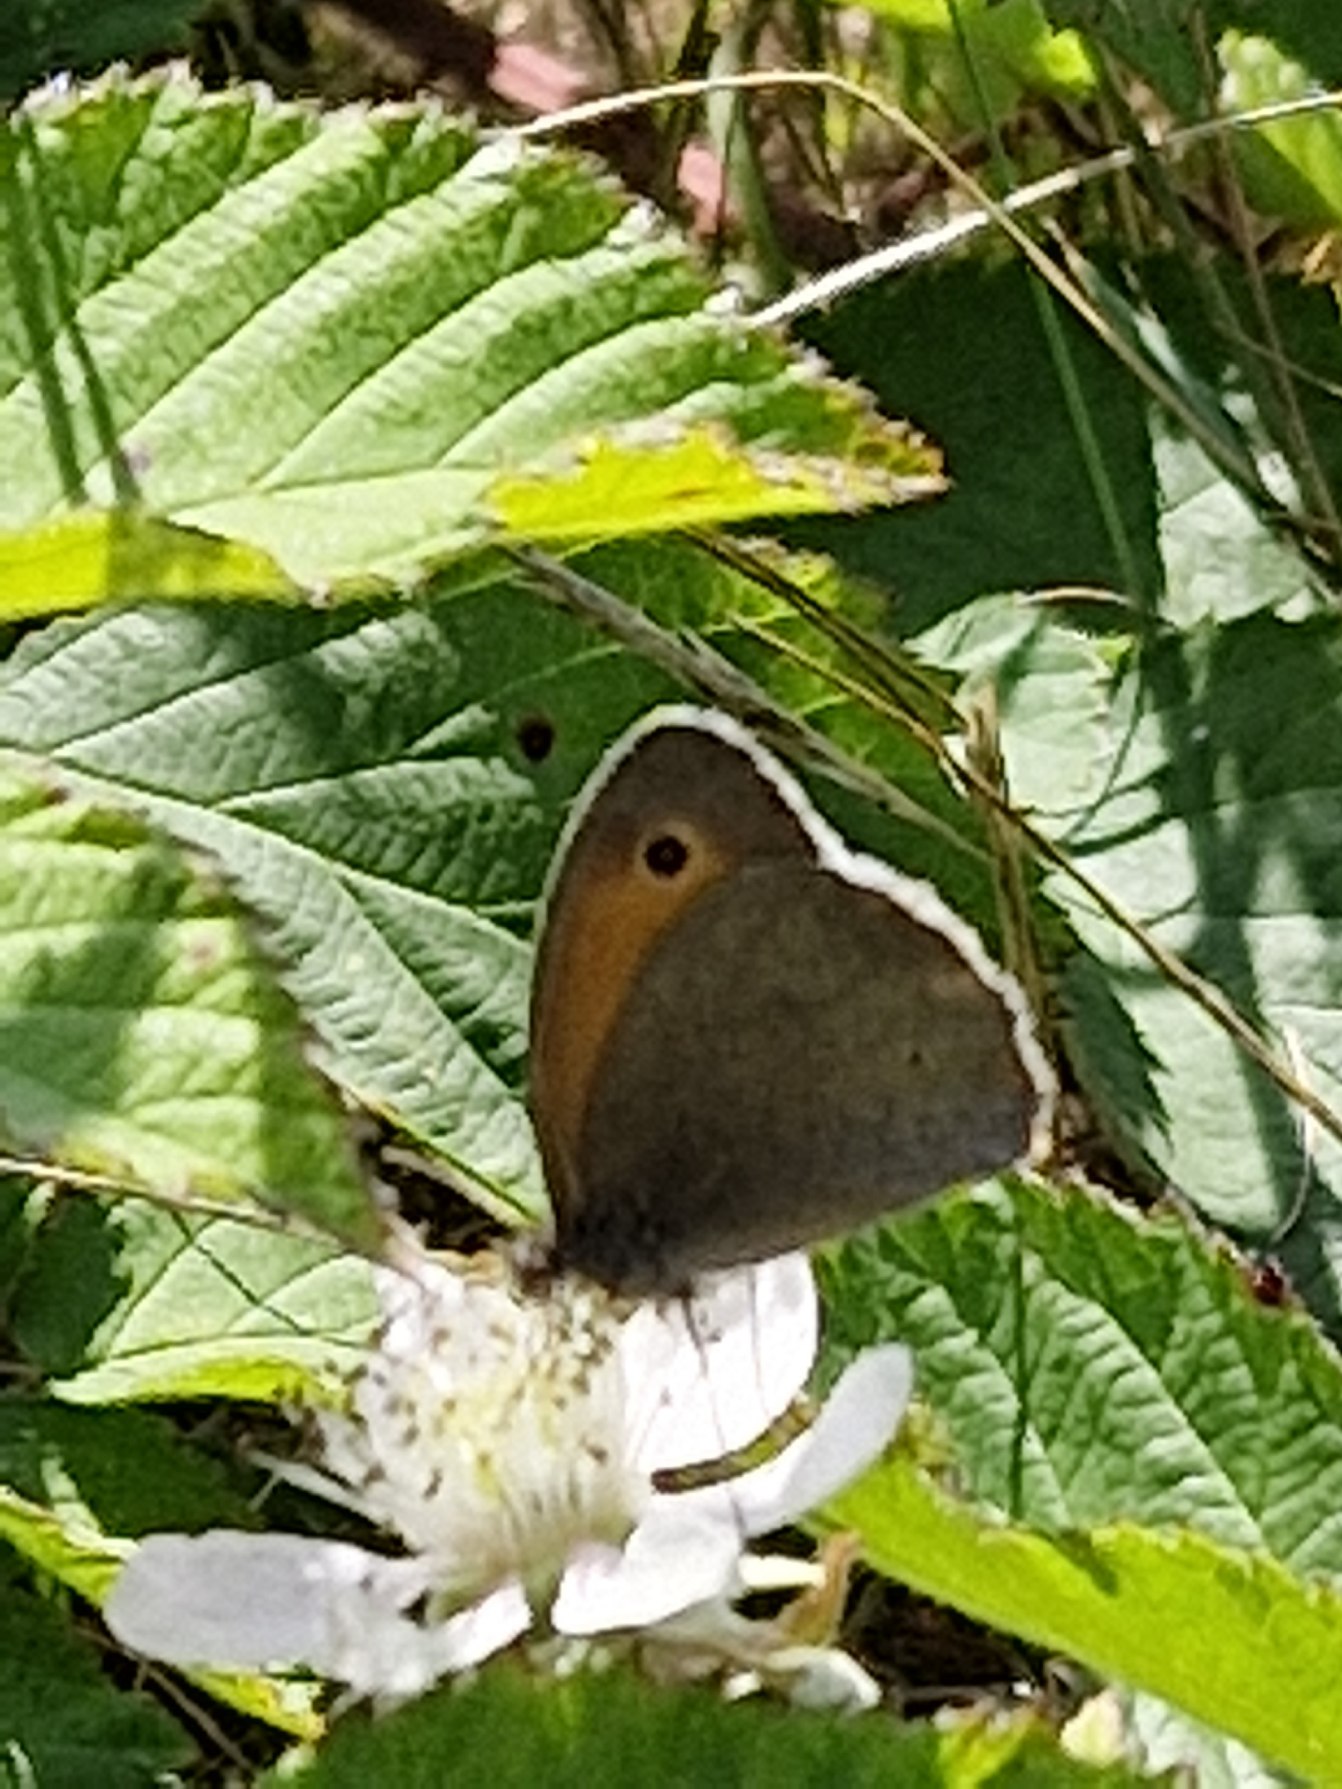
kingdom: Animalia
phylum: Arthropoda
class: Insecta
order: Lepidoptera
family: Nymphalidae
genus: Maniola
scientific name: Maniola jurtina
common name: Græsrandøje
